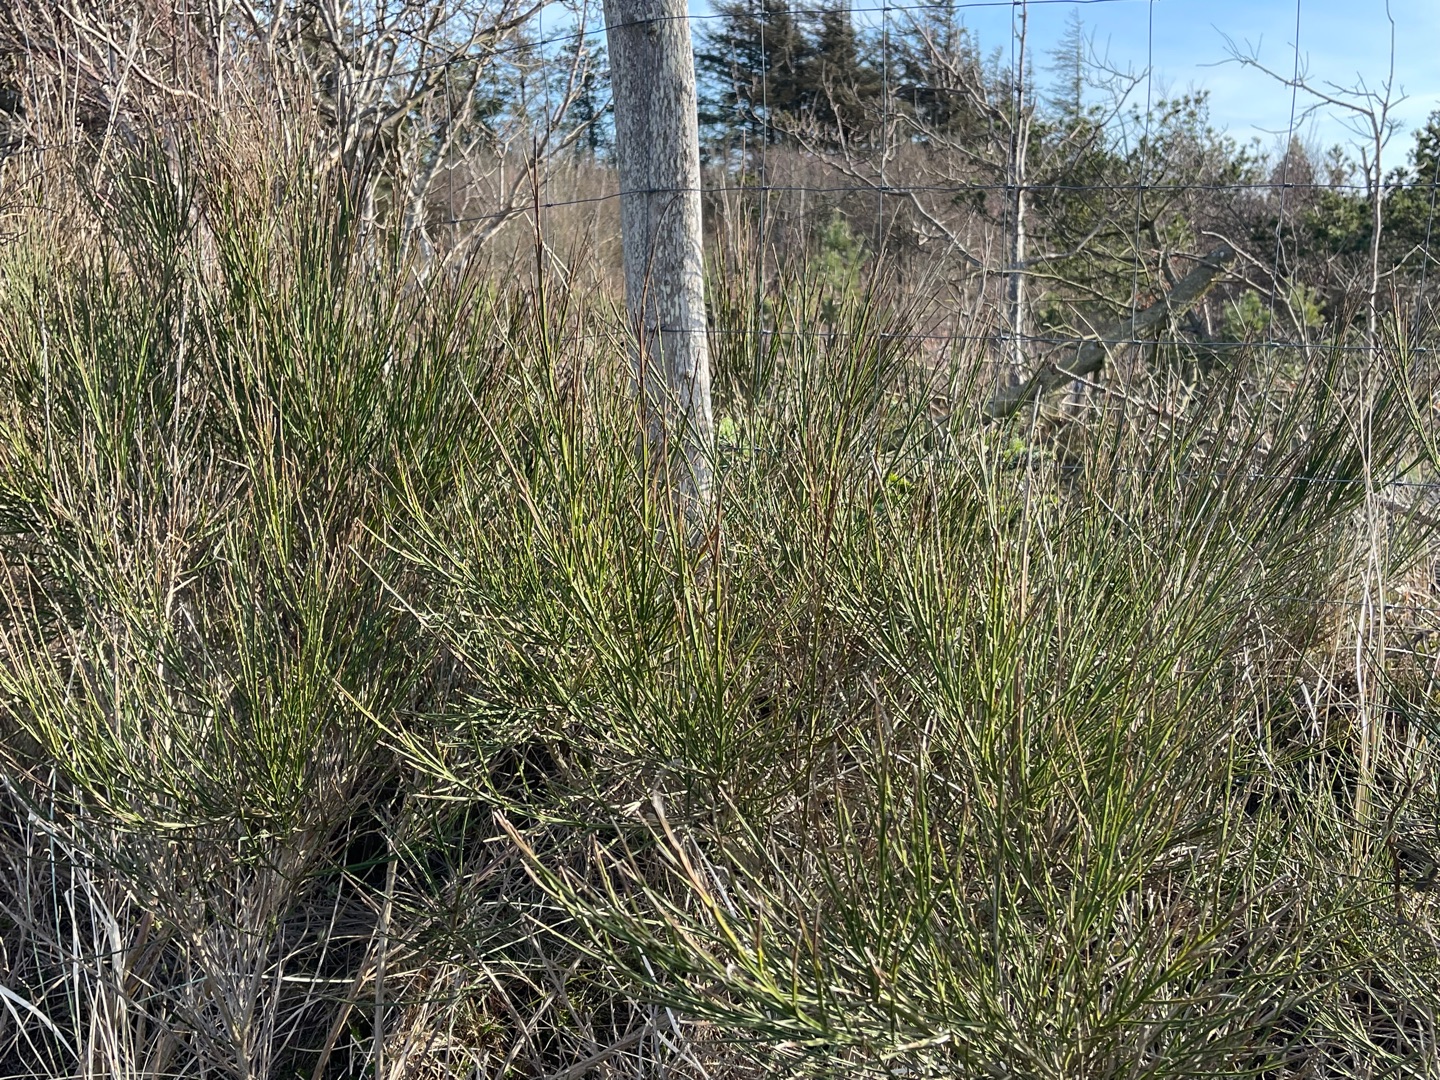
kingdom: Plantae
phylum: Tracheophyta
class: Magnoliopsida
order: Fabales
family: Fabaceae
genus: Cytisus
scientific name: Cytisus scoparius
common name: Almindelig gyvel
